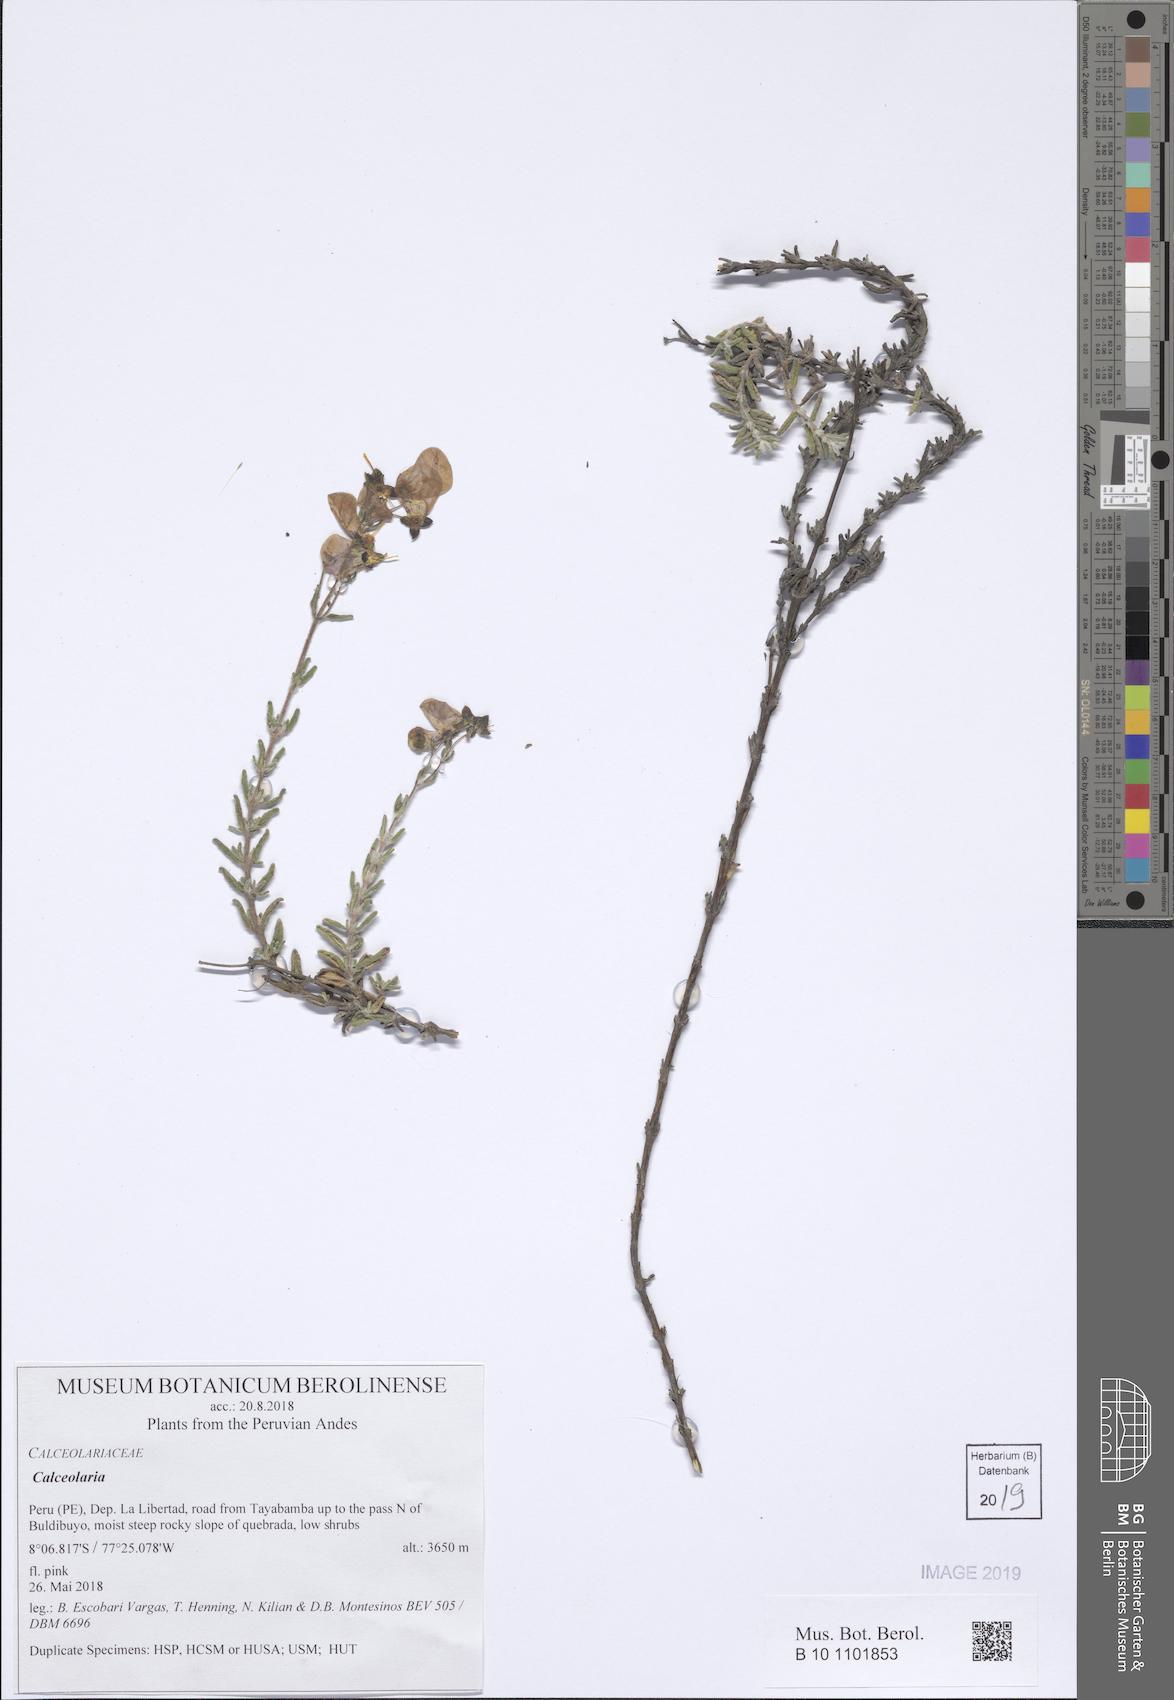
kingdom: Plantae
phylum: Tracheophyta
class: Magnoliopsida
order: Lamiales
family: Calceolariaceae
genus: Calceolaria
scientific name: Calceolaria
